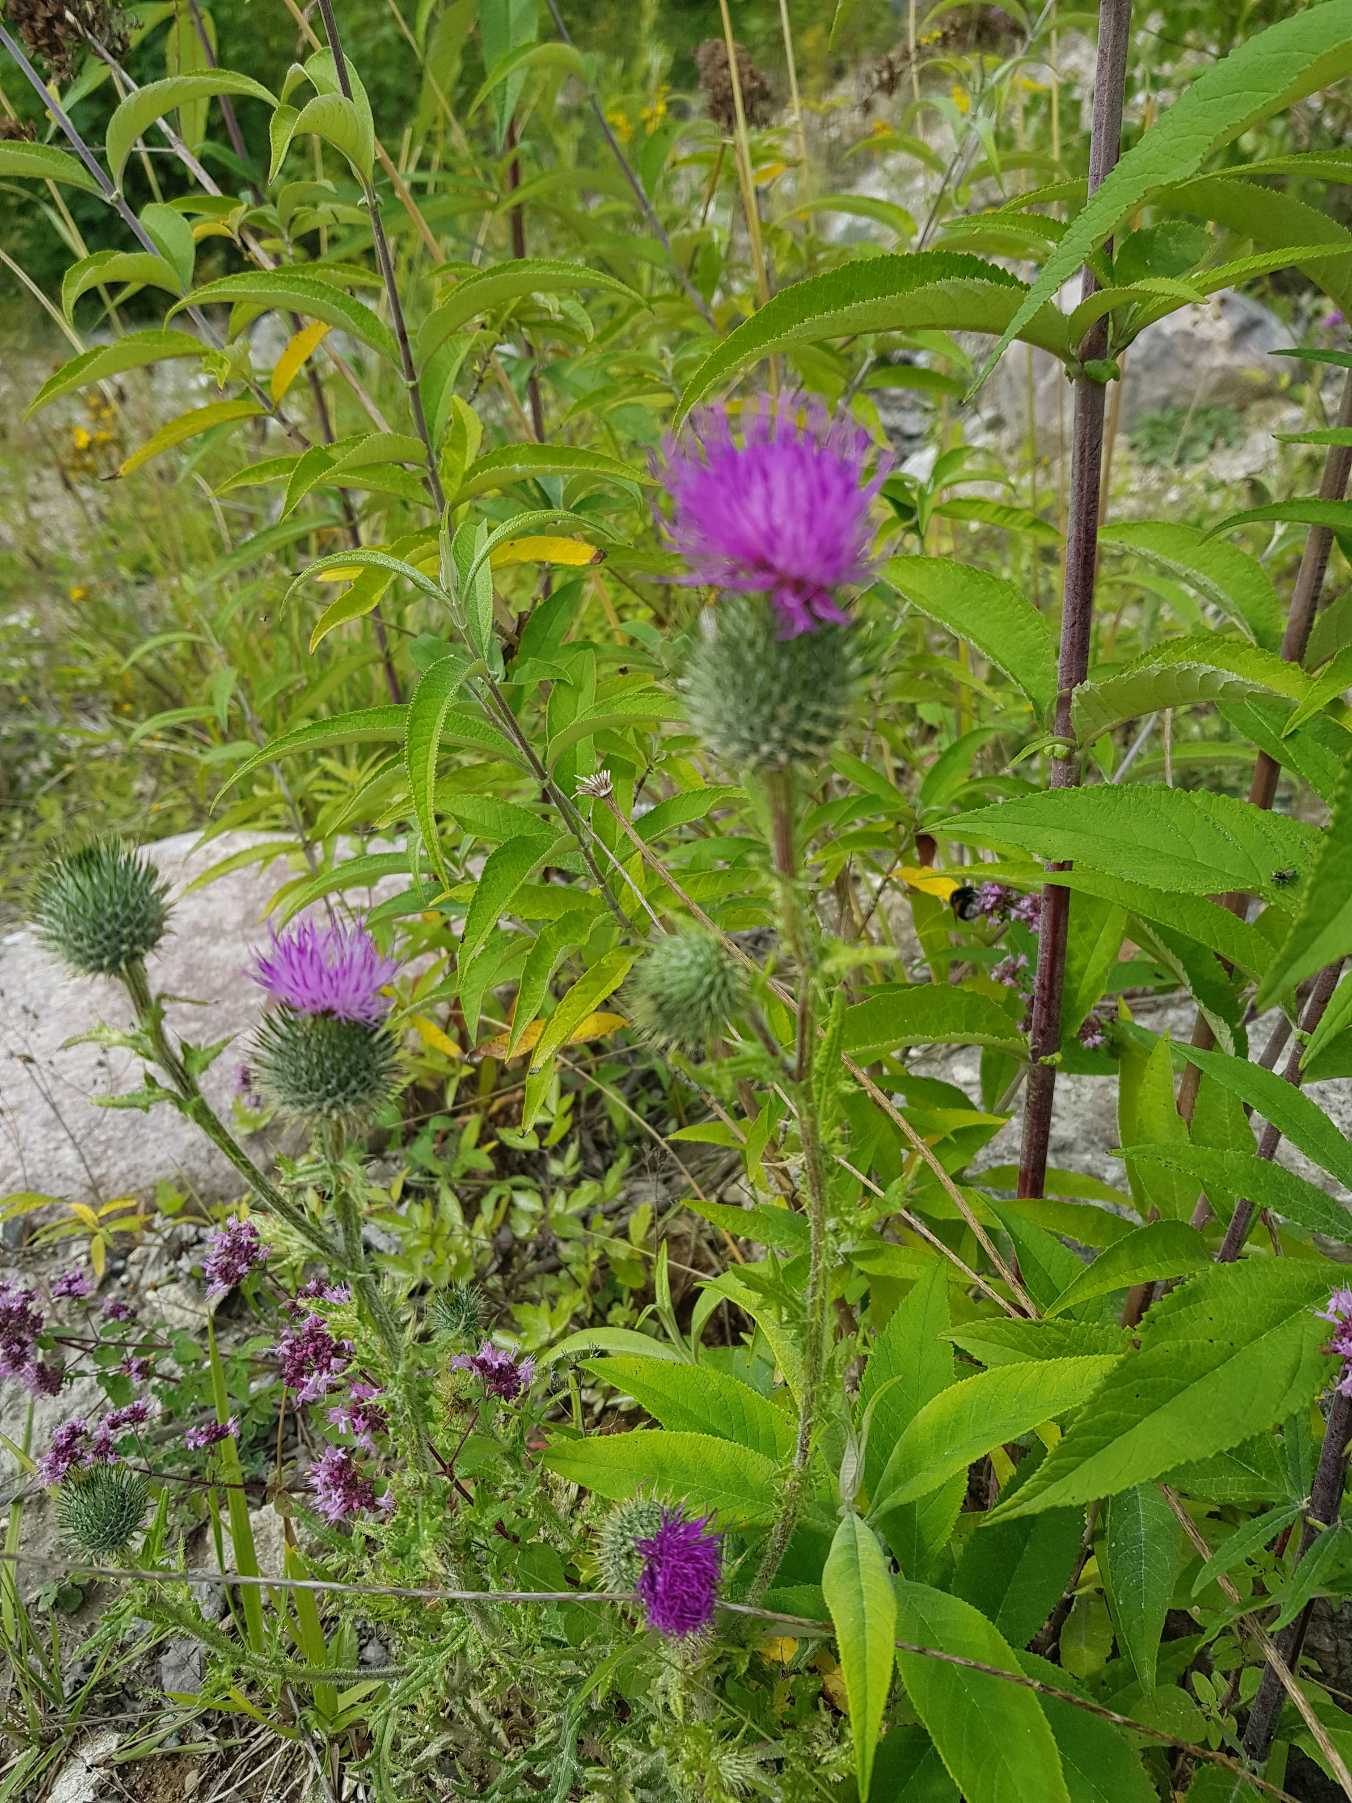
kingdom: Plantae
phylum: Tracheophyta
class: Magnoliopsida
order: Asterales
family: Asteraceae
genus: Cirsium
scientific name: Cirsium vulgare
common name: Horse-tidsel
